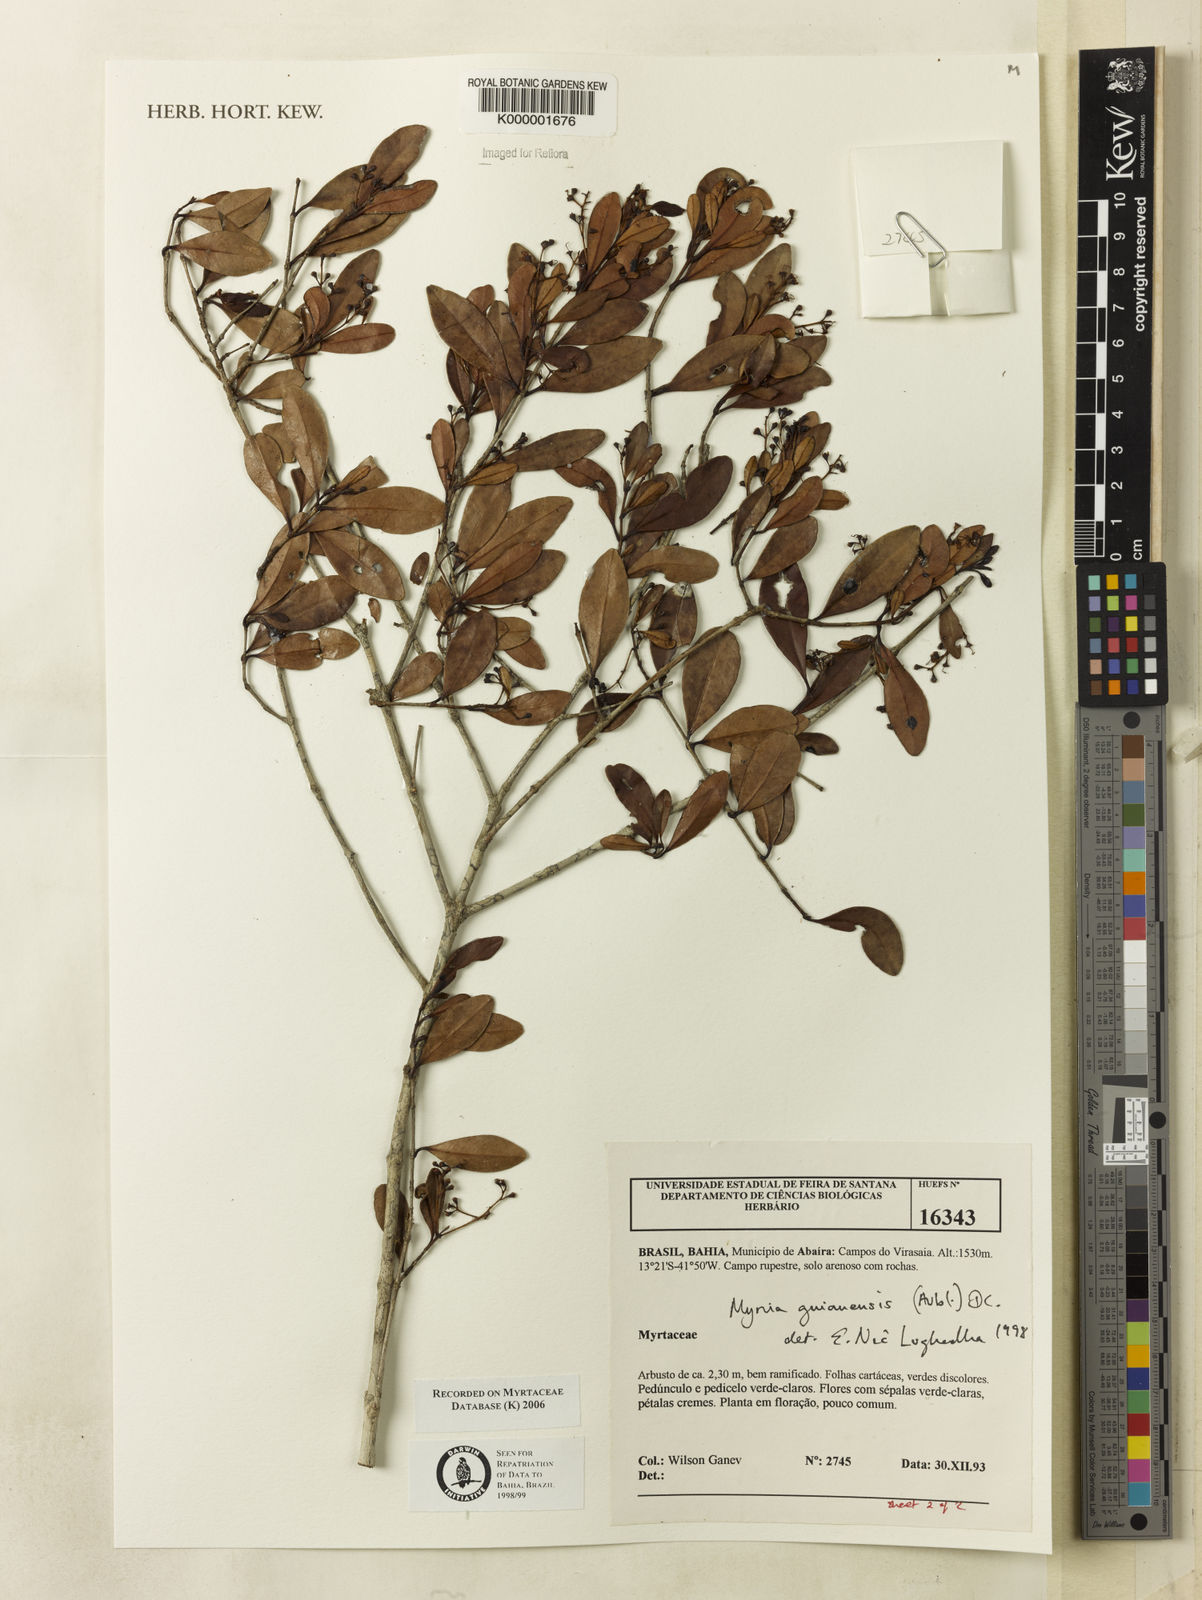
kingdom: Plantae
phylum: Tracheophyta
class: Magnoliopsida
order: Myrtales
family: Myrtaceae
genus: Myrcia
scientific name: Myrcia guianensis
